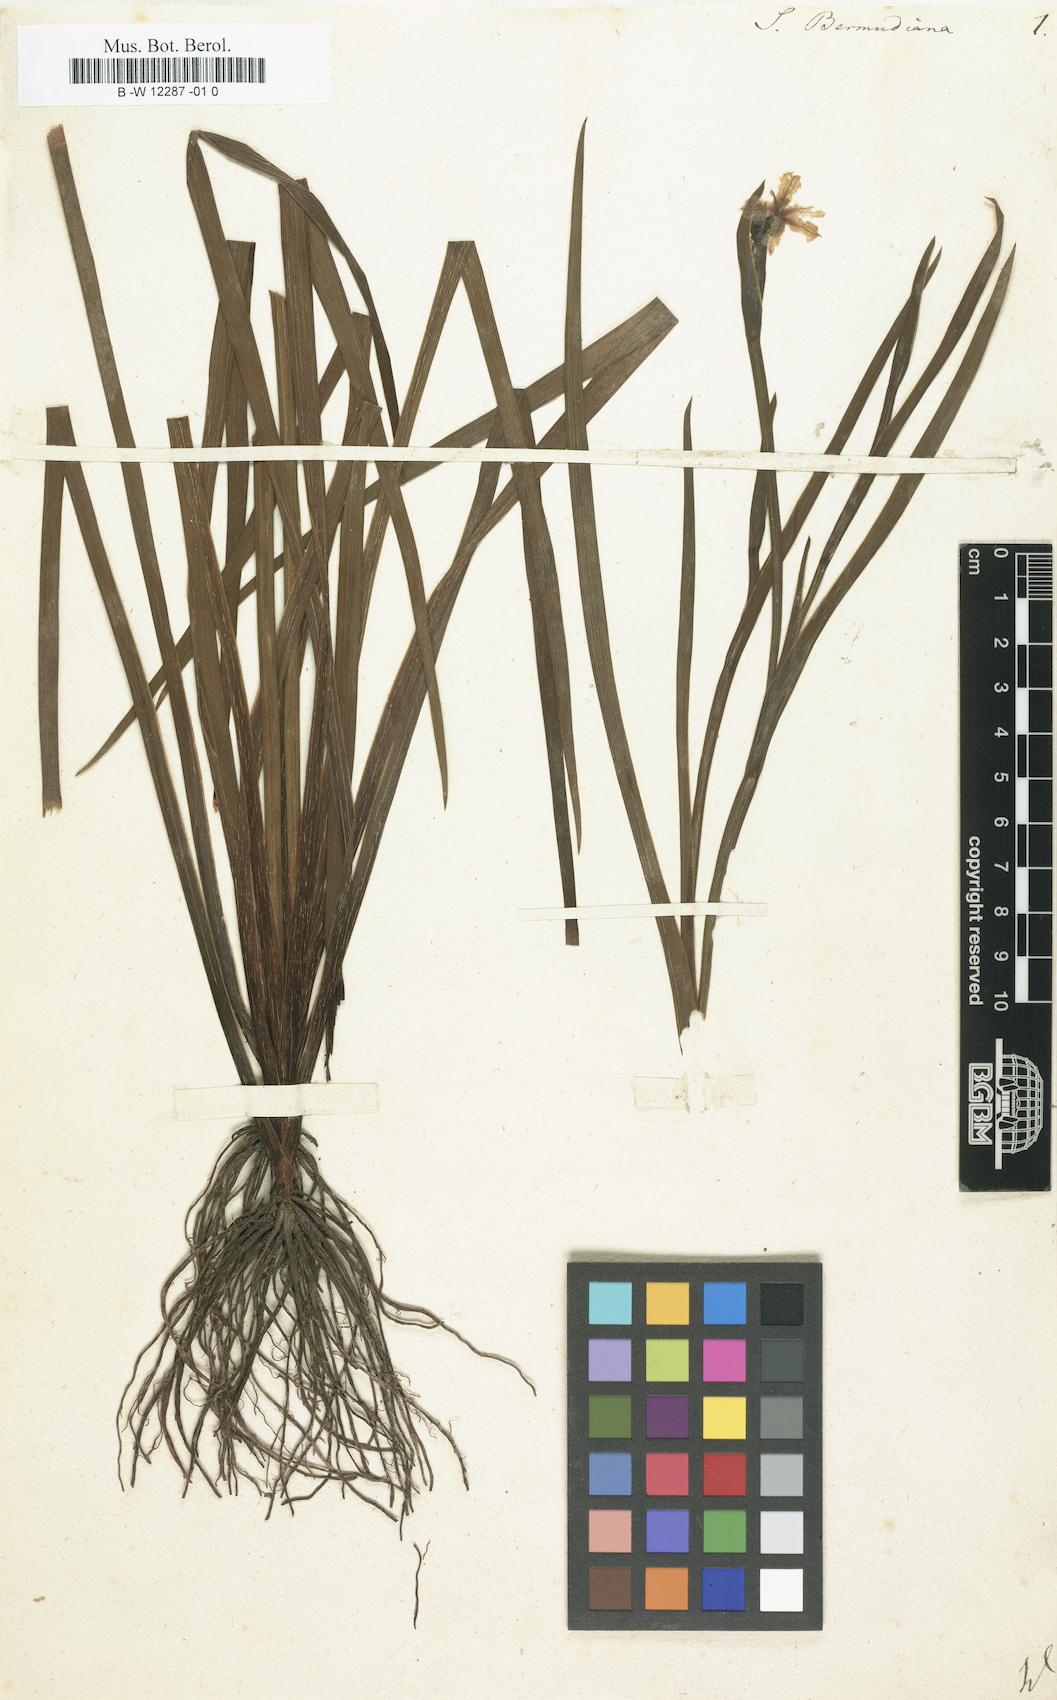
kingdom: Plantae
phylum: Tracheophyta
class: Liliopsida
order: Asparagales
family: Iridaceae
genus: Sisyrinchium
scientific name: Sisyrinchium bermudiana
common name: Blue-eyed-grass
